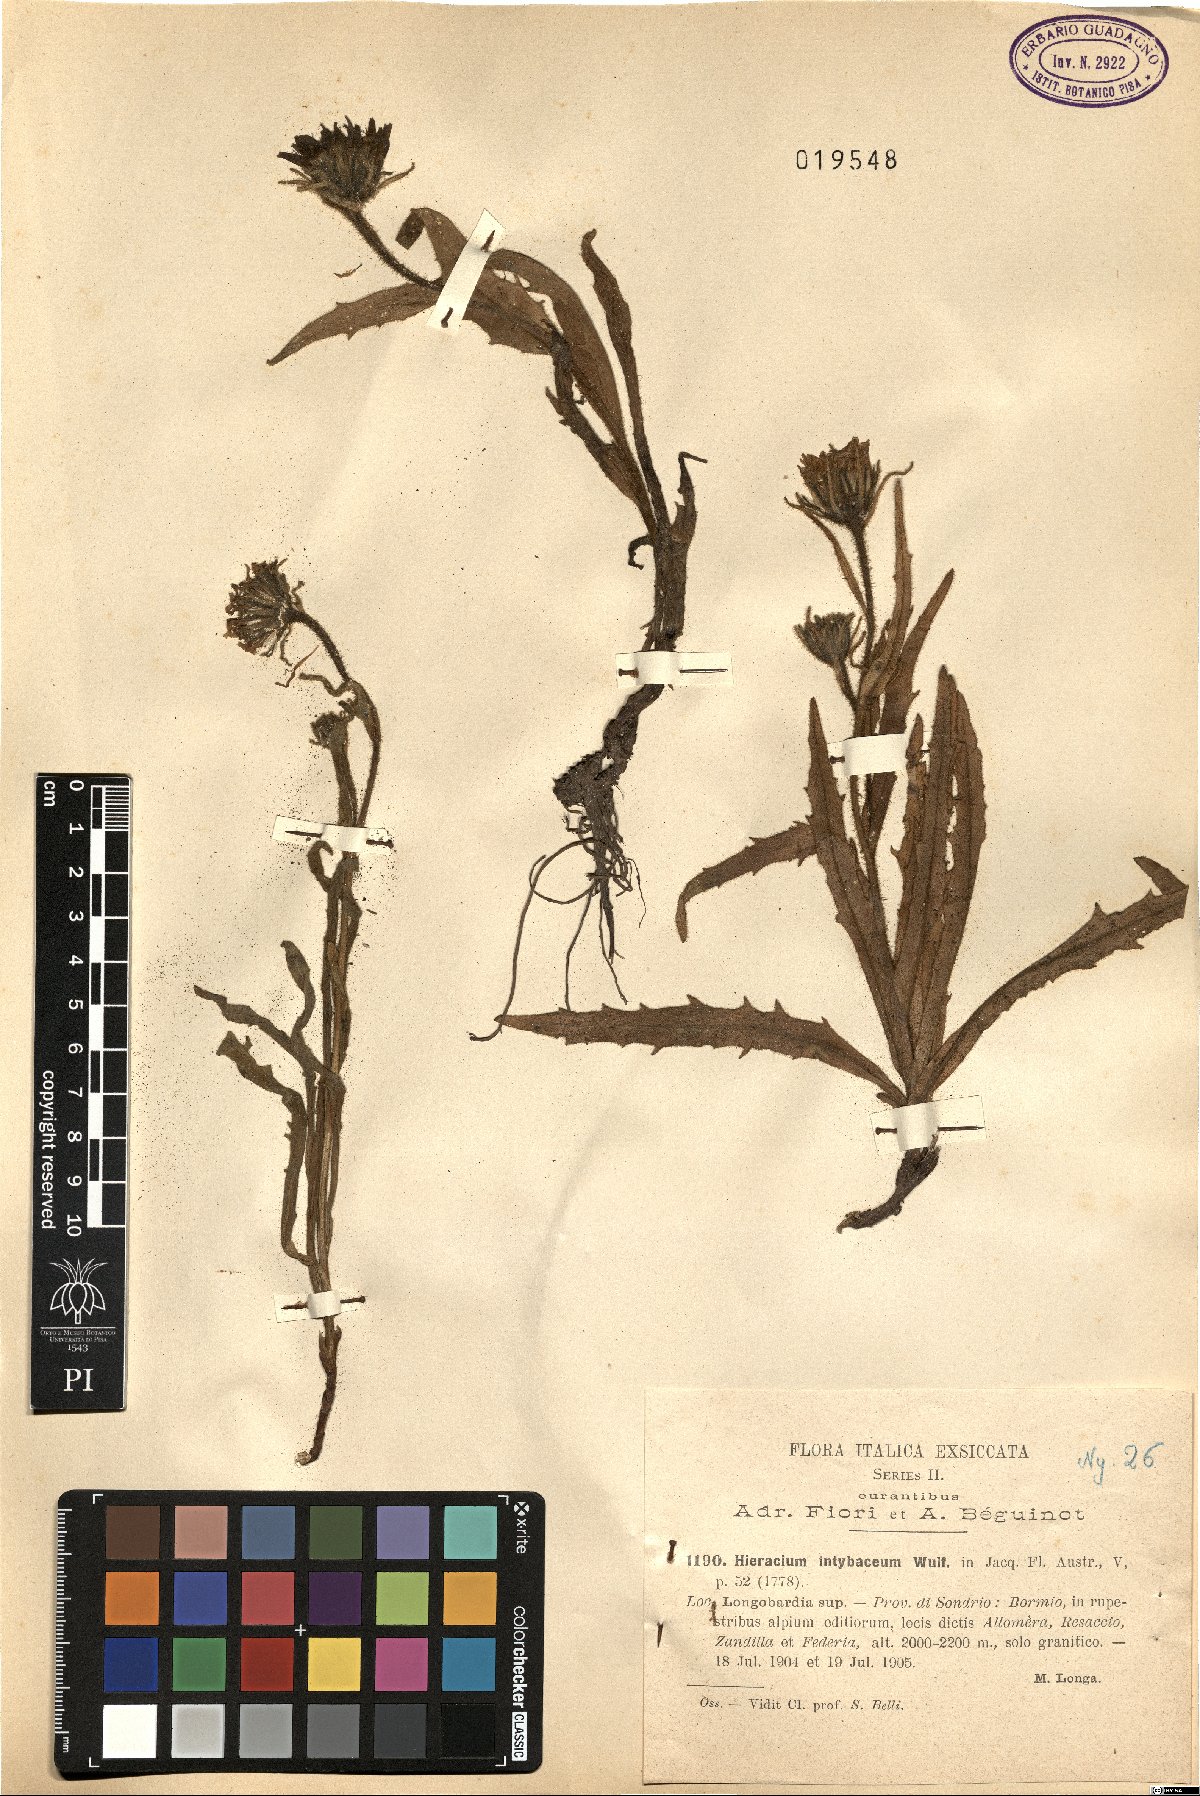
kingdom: Plantae
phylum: Tracheophyta
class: Magnoliopsida
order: Asterales
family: Asteraceae
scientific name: Asteraceae
